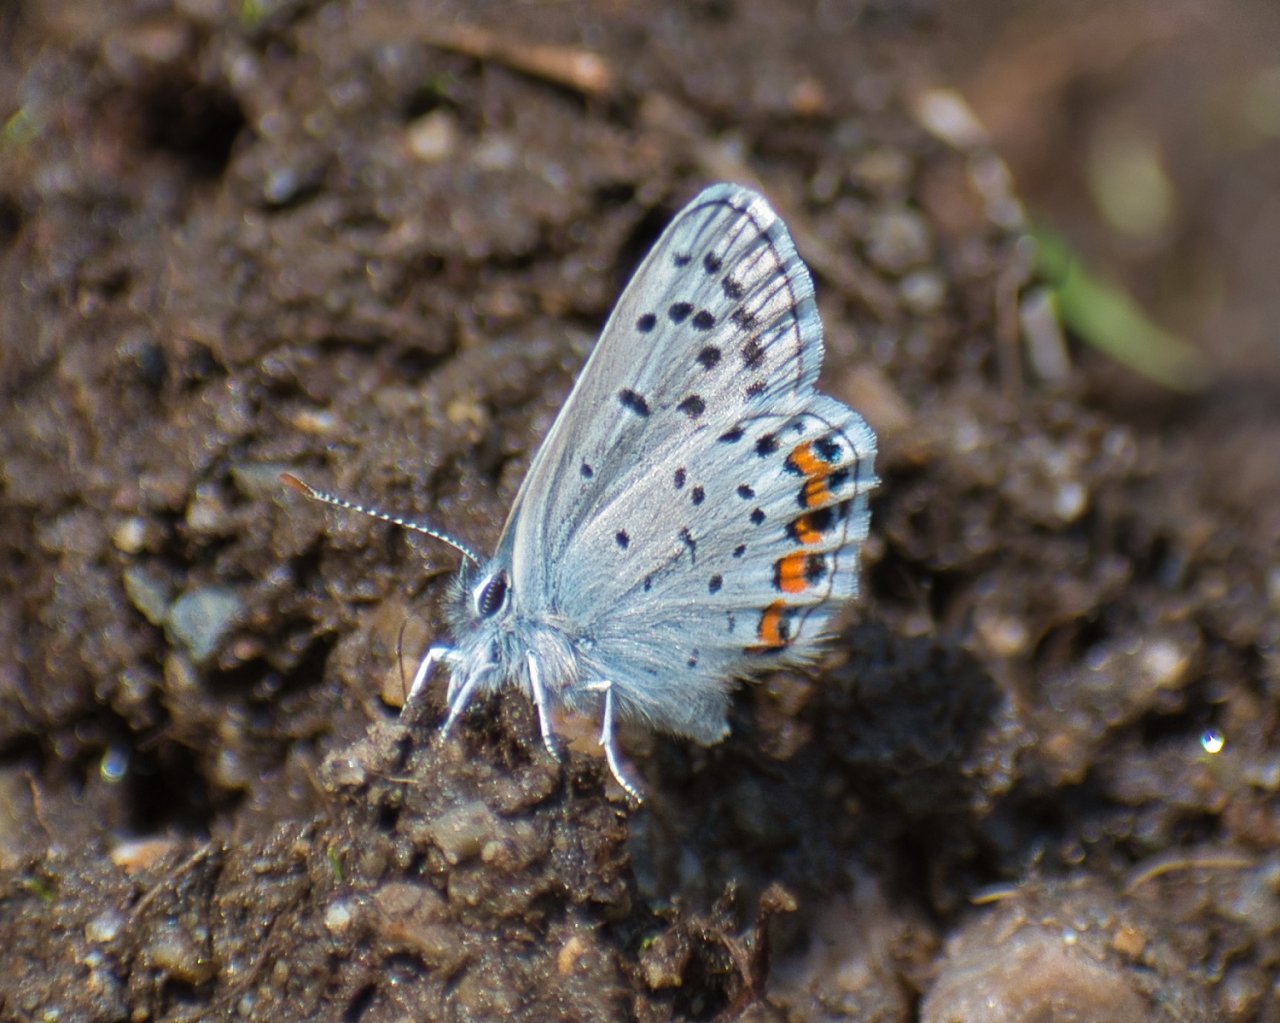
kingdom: Animalia
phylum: Arthropoda
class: Insecta
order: Lepidoptera
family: Lycaenidae
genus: Plebejus
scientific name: Plebejus lupini
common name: Lupine Blue
